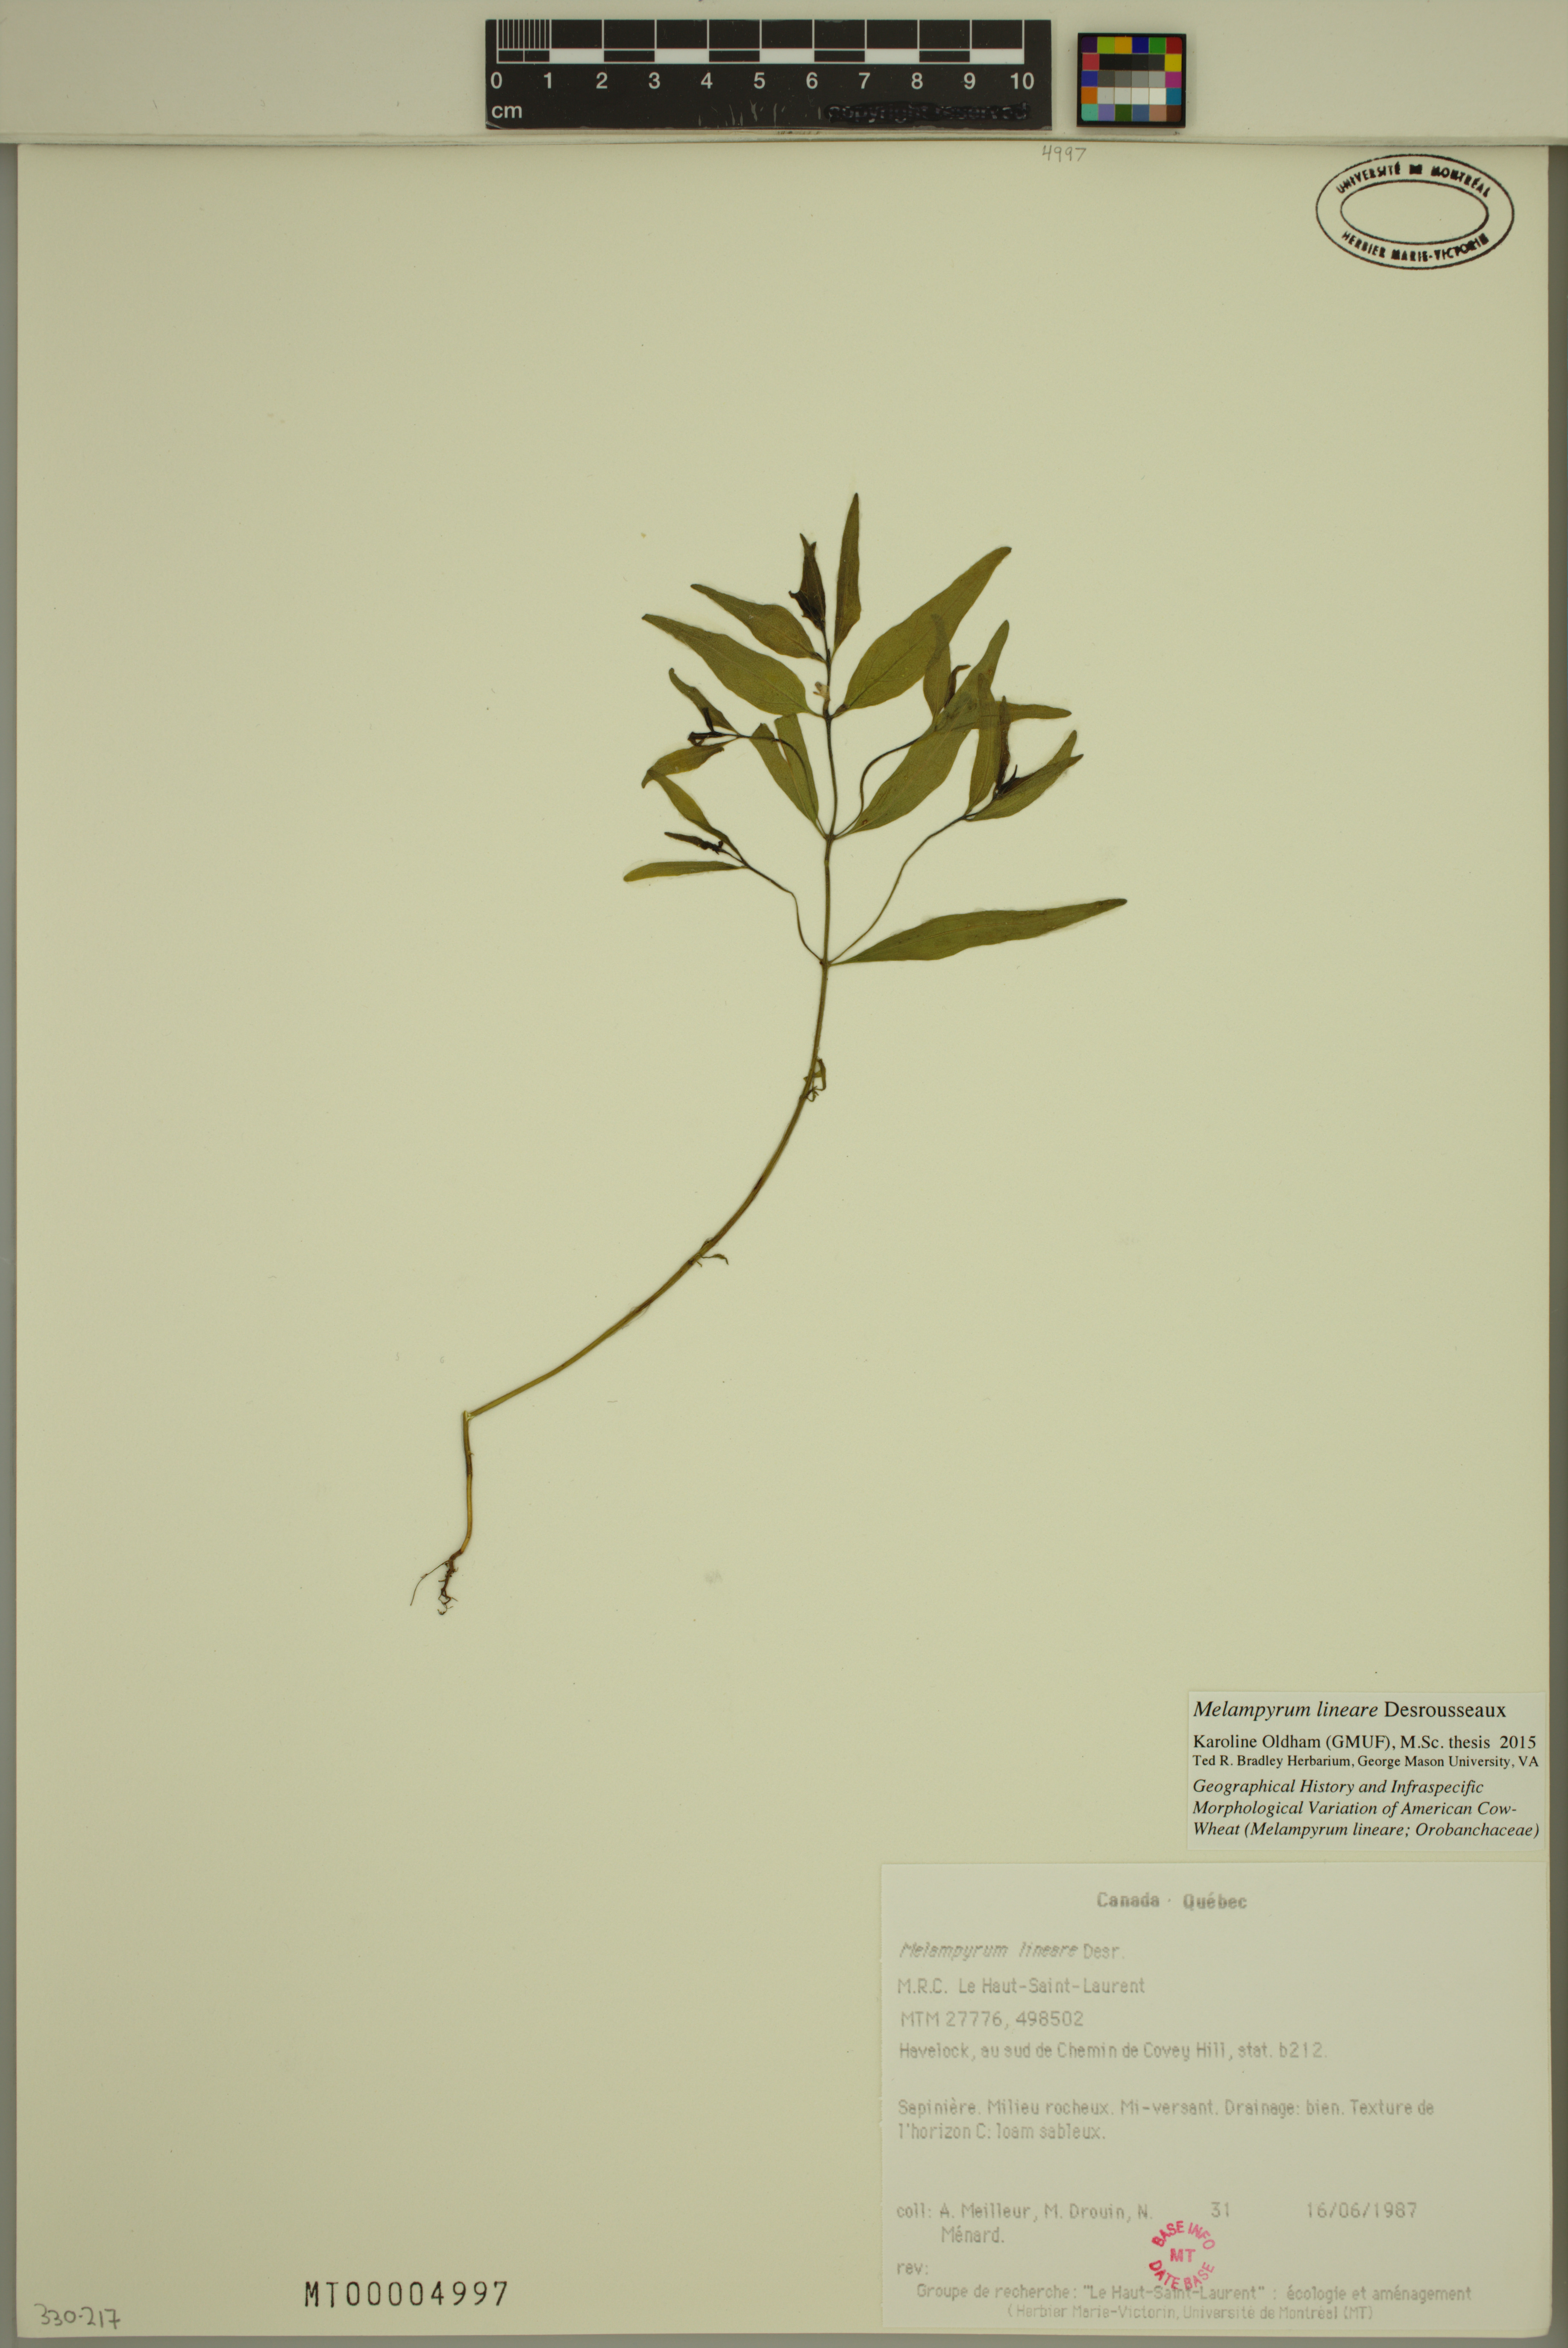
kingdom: Plantae
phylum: Tracheophyta
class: Magnoliopsida
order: Lamiales
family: Orobanchaceae
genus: Melampyrum
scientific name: Melampyrum lineare
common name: American cow-wheat
